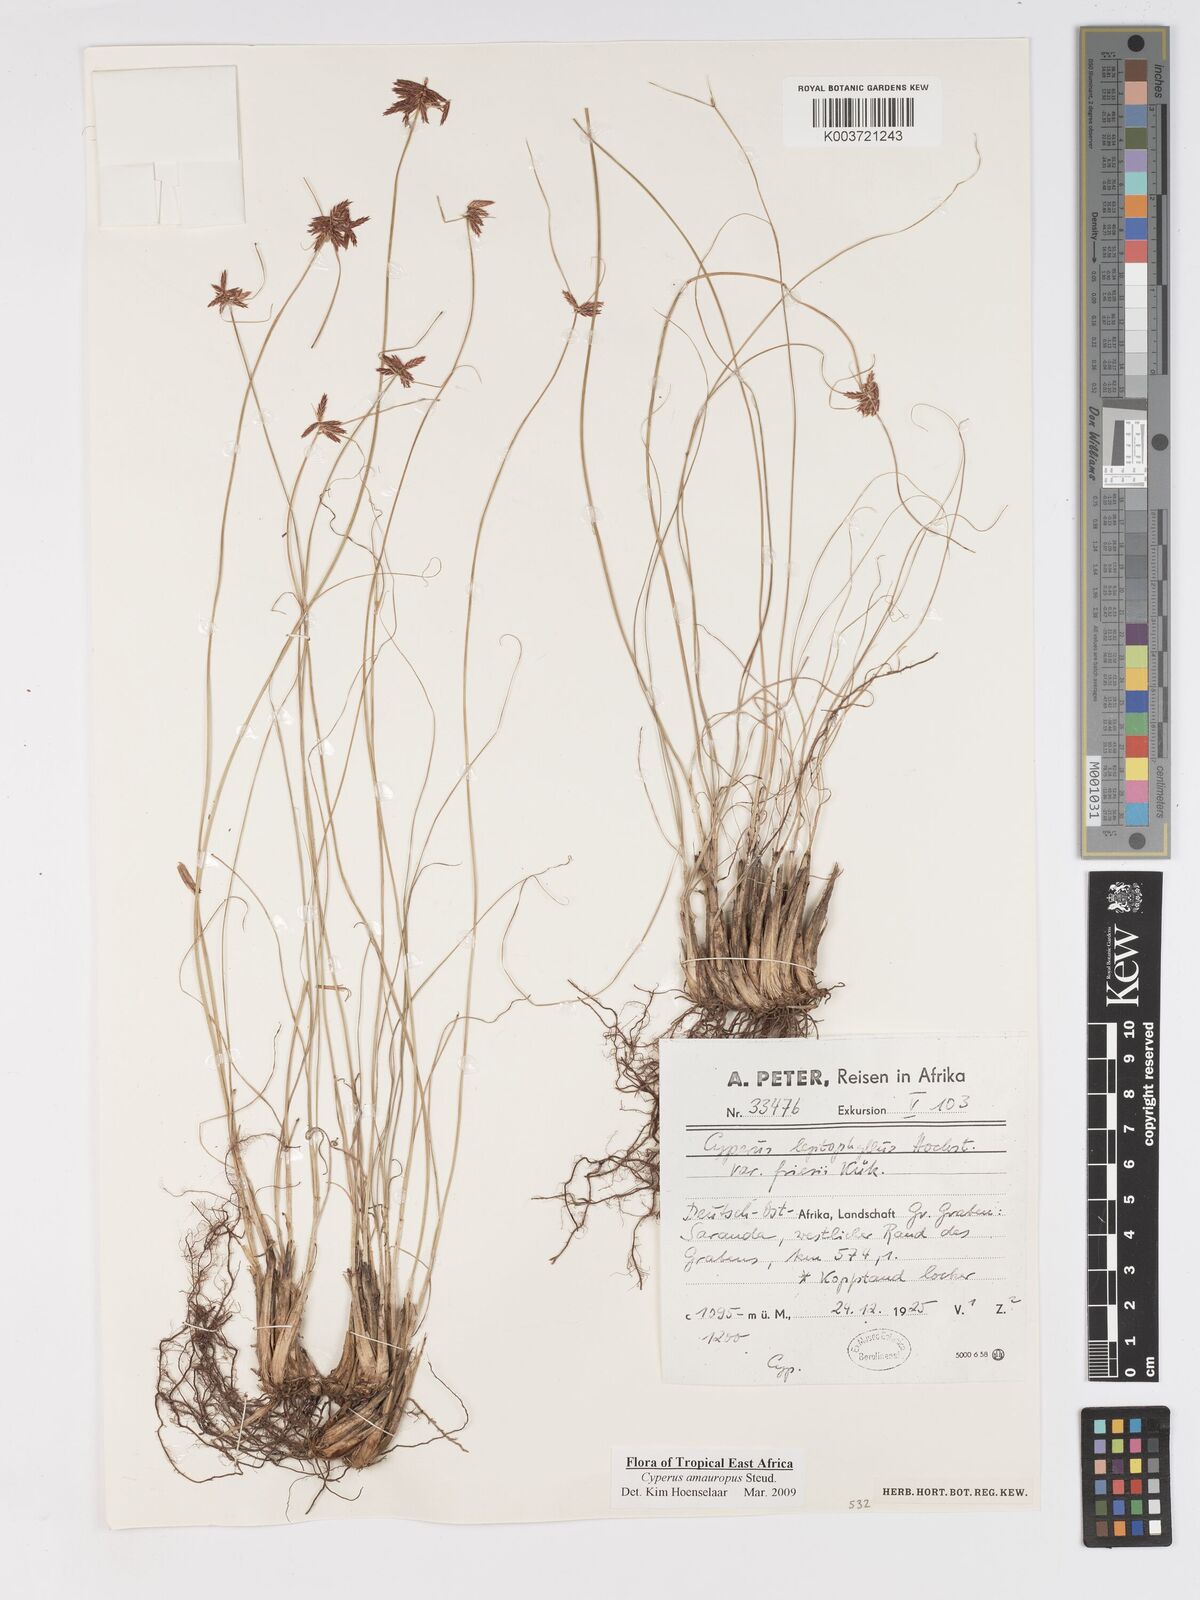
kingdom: Plantae
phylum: Tracheophyta
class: Liliopsida
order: Poales
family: Cyperaceae
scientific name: Cyperaceae
